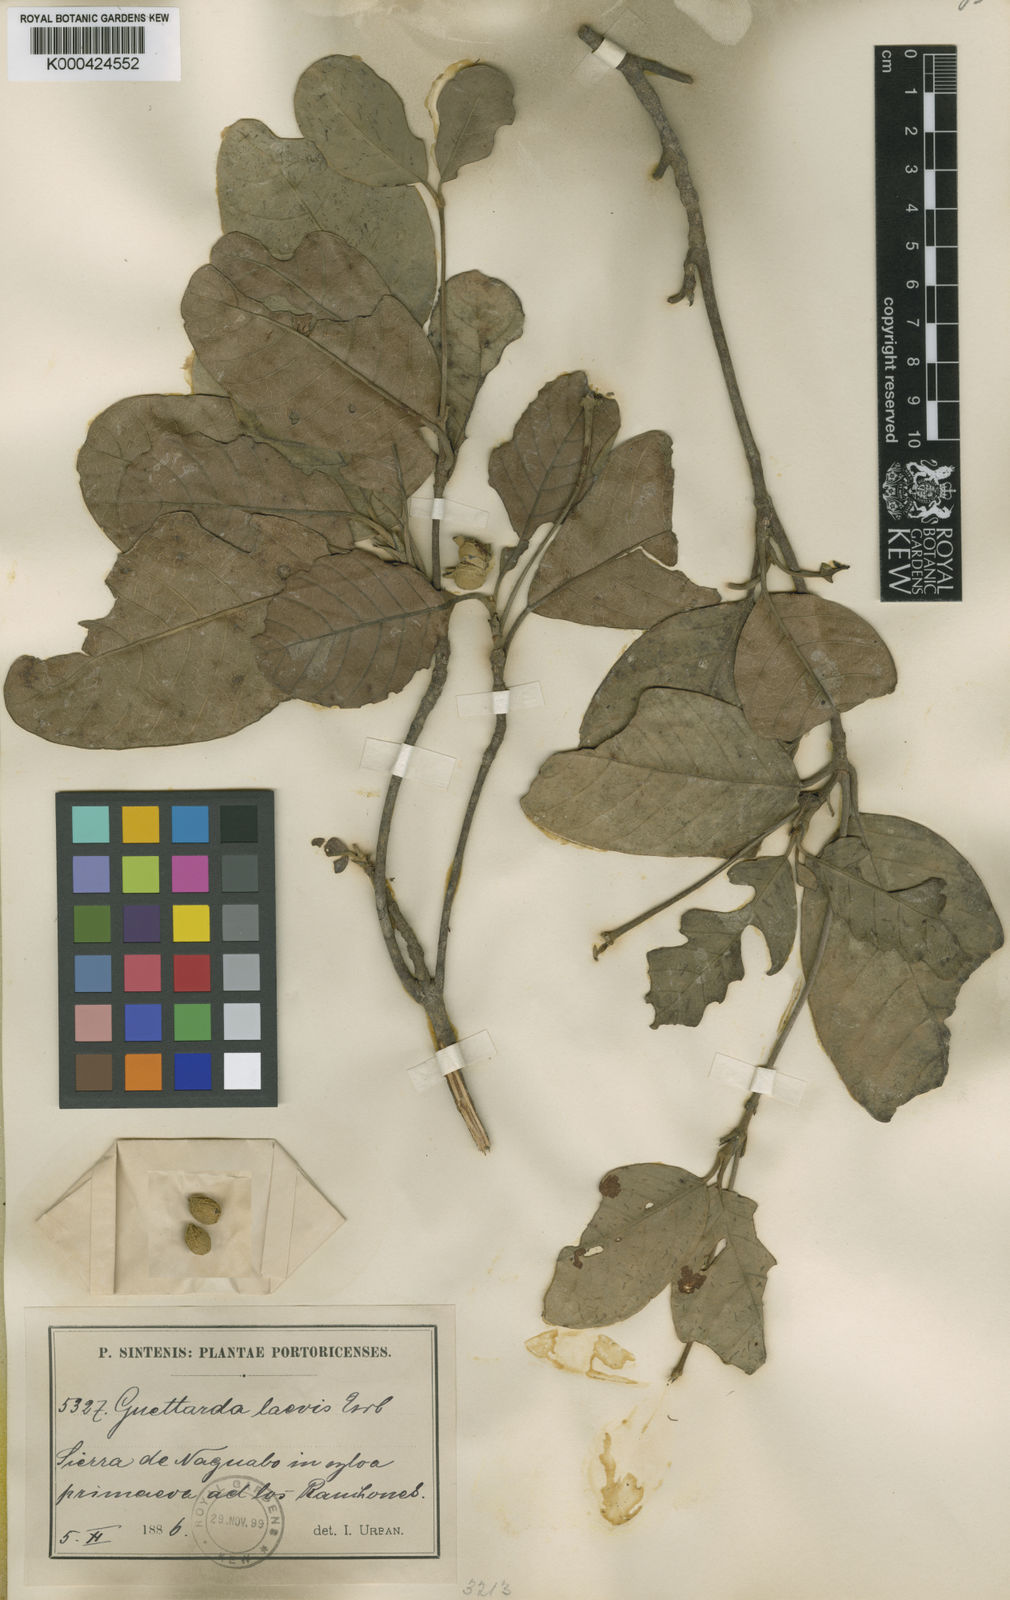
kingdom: Plantae
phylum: Tracheophyta
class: Magnoliopsida
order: Gentianales
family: Rubiaceae
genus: Guettarda
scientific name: Guettarda valenzuelana
